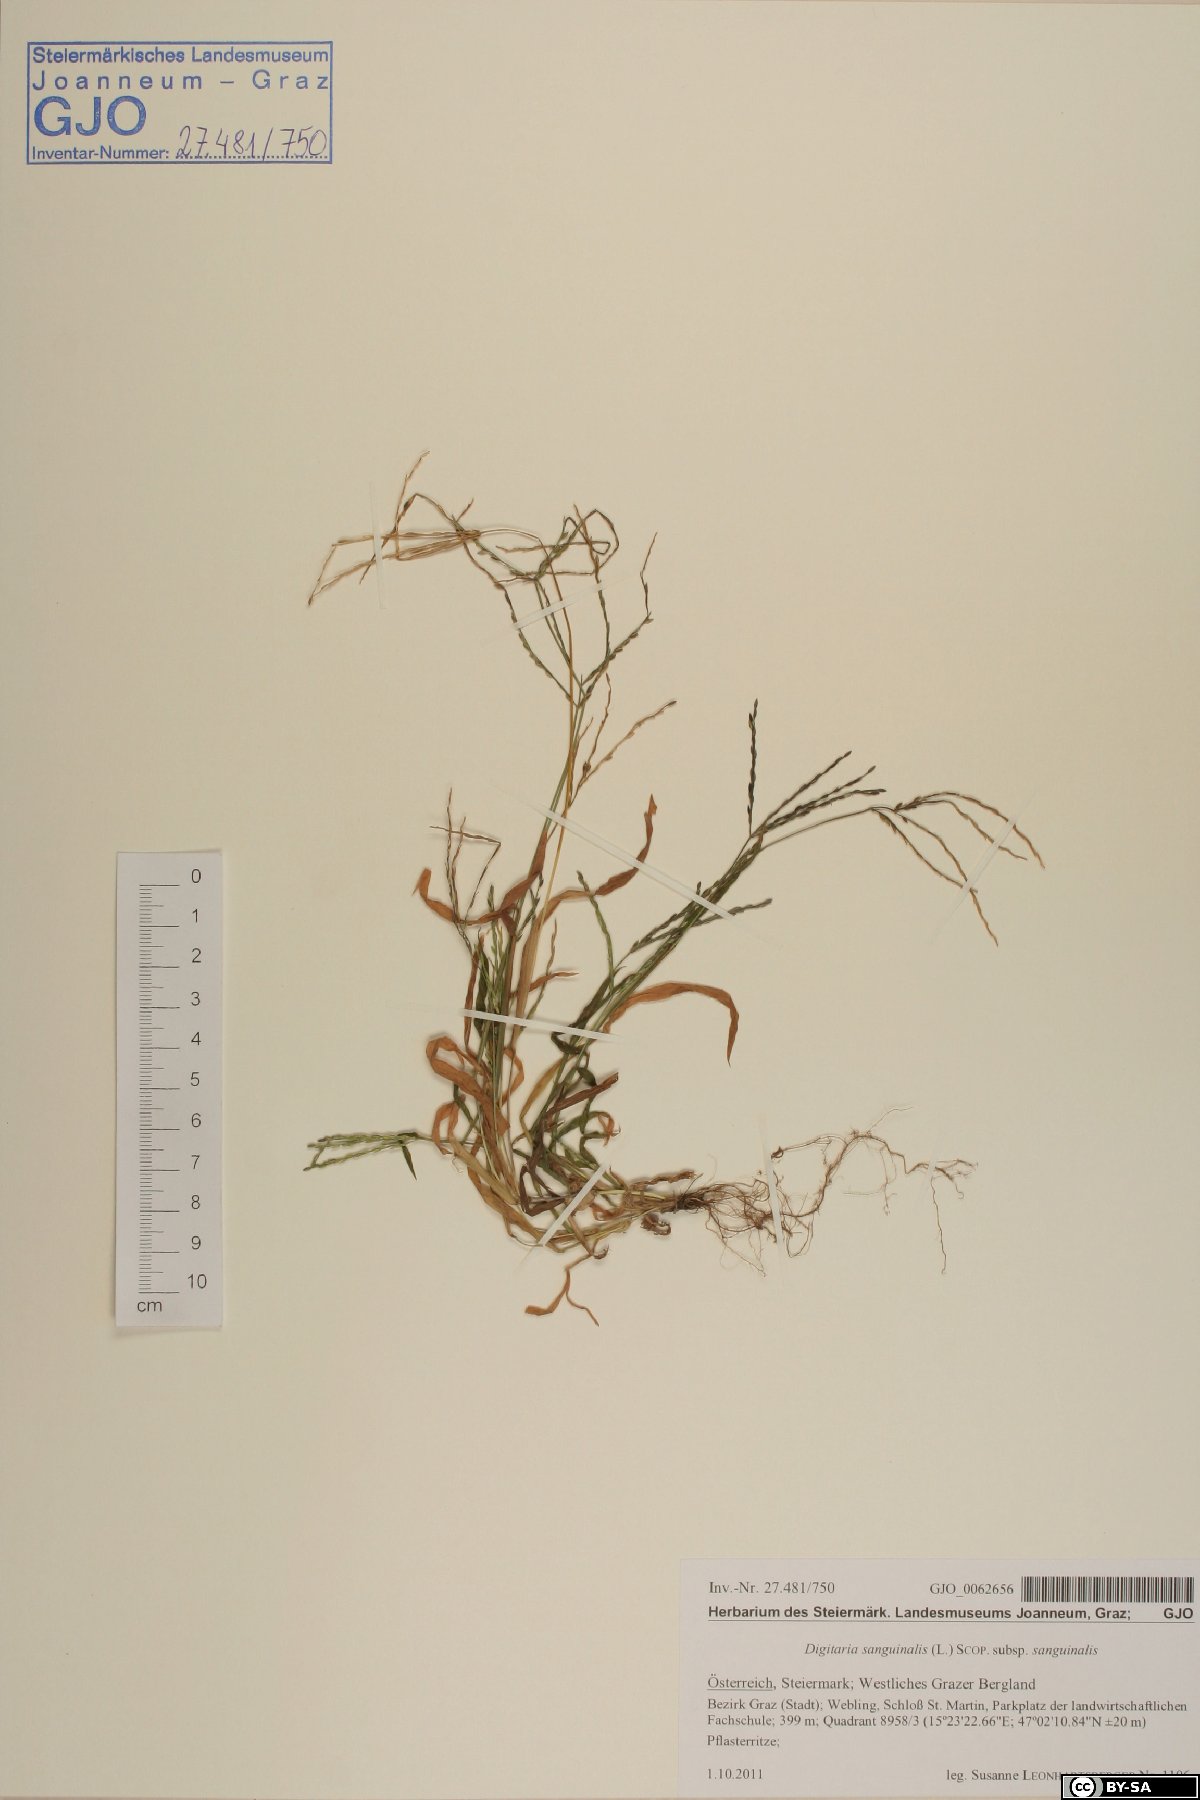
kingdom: Plantae
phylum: Tracheophyta
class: Liliopsida
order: Poales
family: Poaceae
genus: Digitaria
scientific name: Digitaria sanguinalis
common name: Hairy crabgrass
